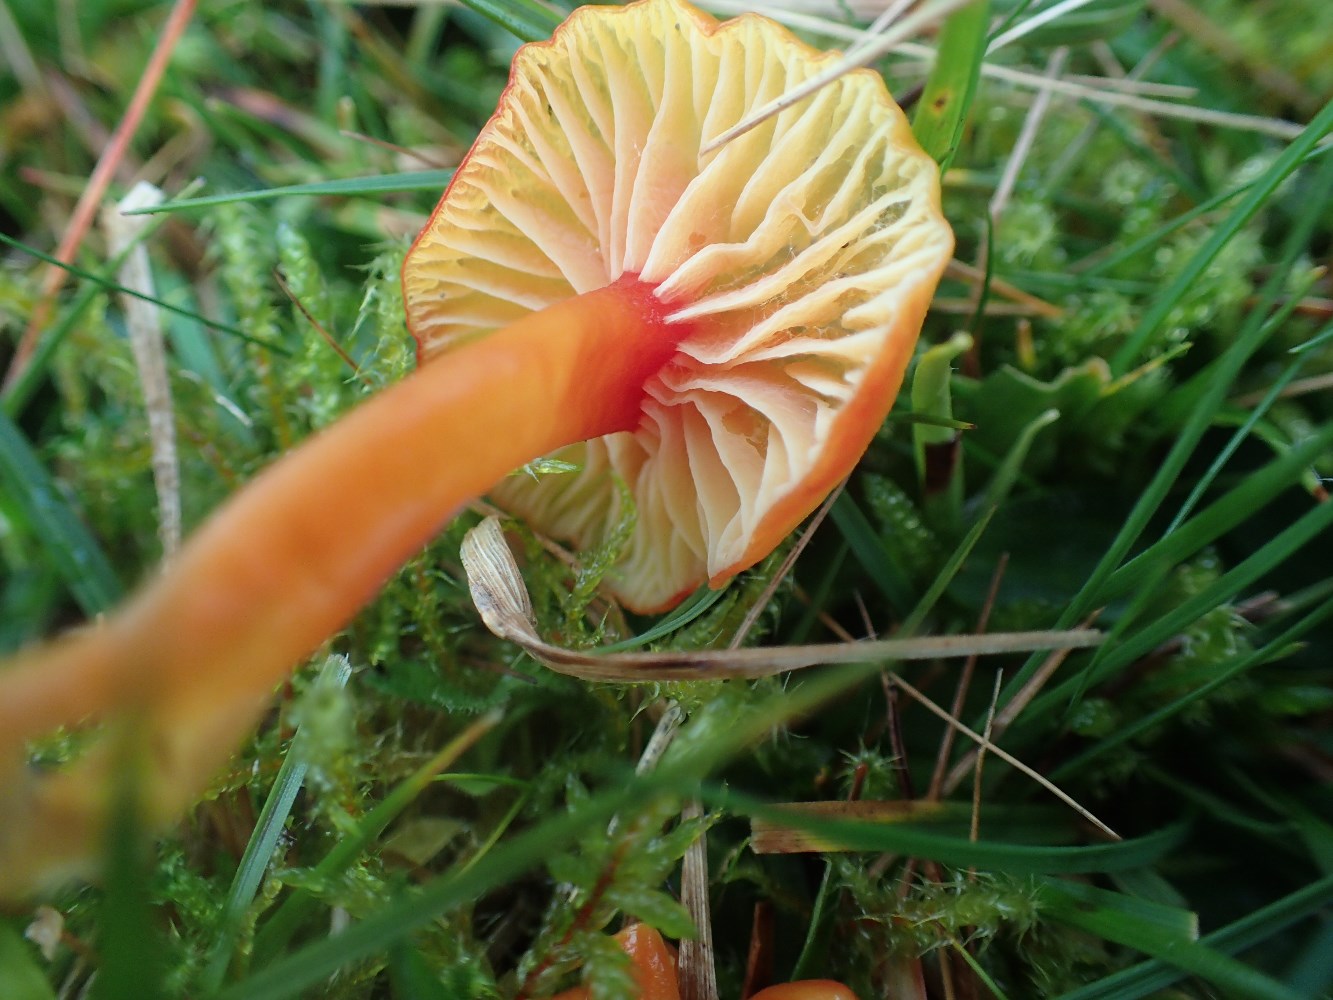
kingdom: Fungi
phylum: Basidiomycota
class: Agaricomycetes
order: Agaricales
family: Hygrophoraceae
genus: Hygrocybe
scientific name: Hygrocybe insipida
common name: liden vokshat
